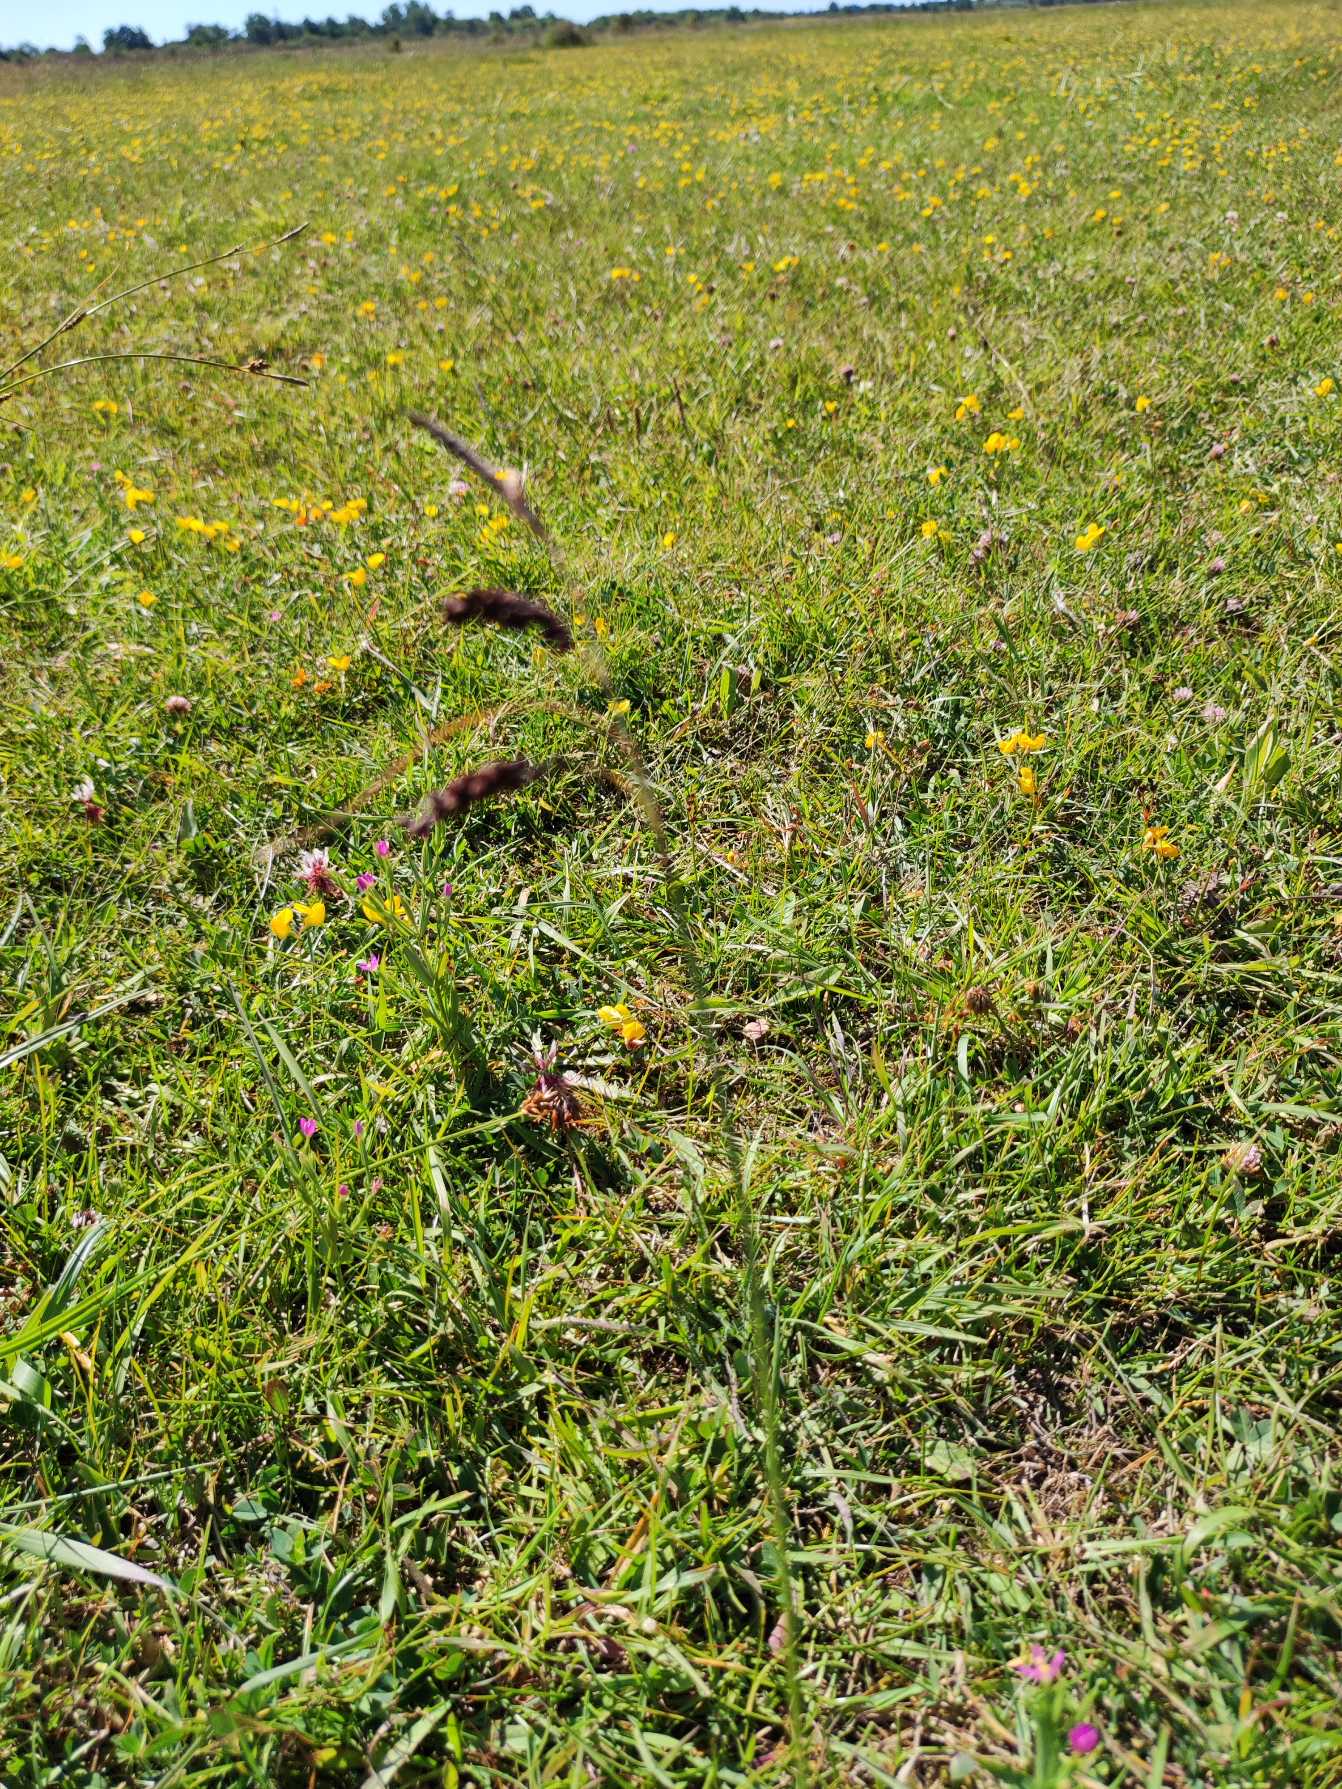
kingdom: Plantae
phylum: Tracheophyta
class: Liliopsida
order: Poales
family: Cyperaceae
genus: Carex
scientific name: Carex flacca
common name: Blågrøn star
